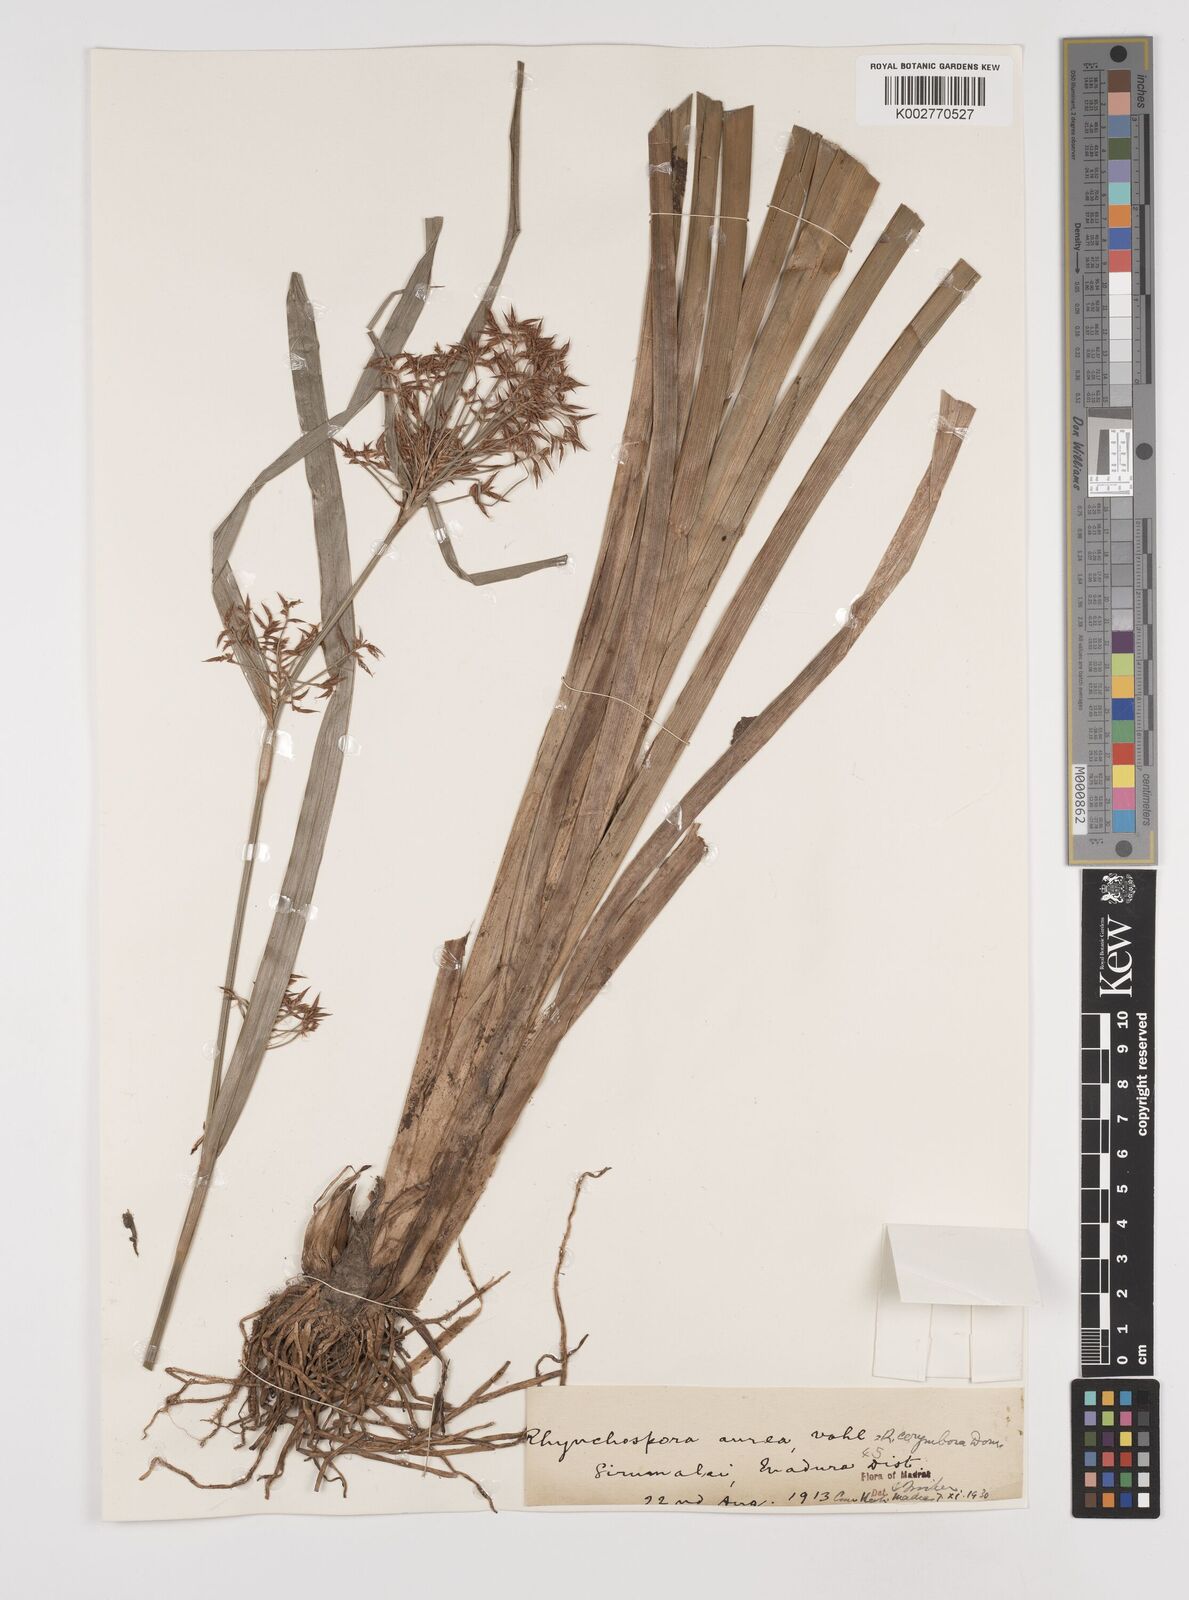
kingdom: Plantae
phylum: Tracheophyta
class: Liliopsida
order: Poales
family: Cyperaceae
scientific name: Cyperaceae
